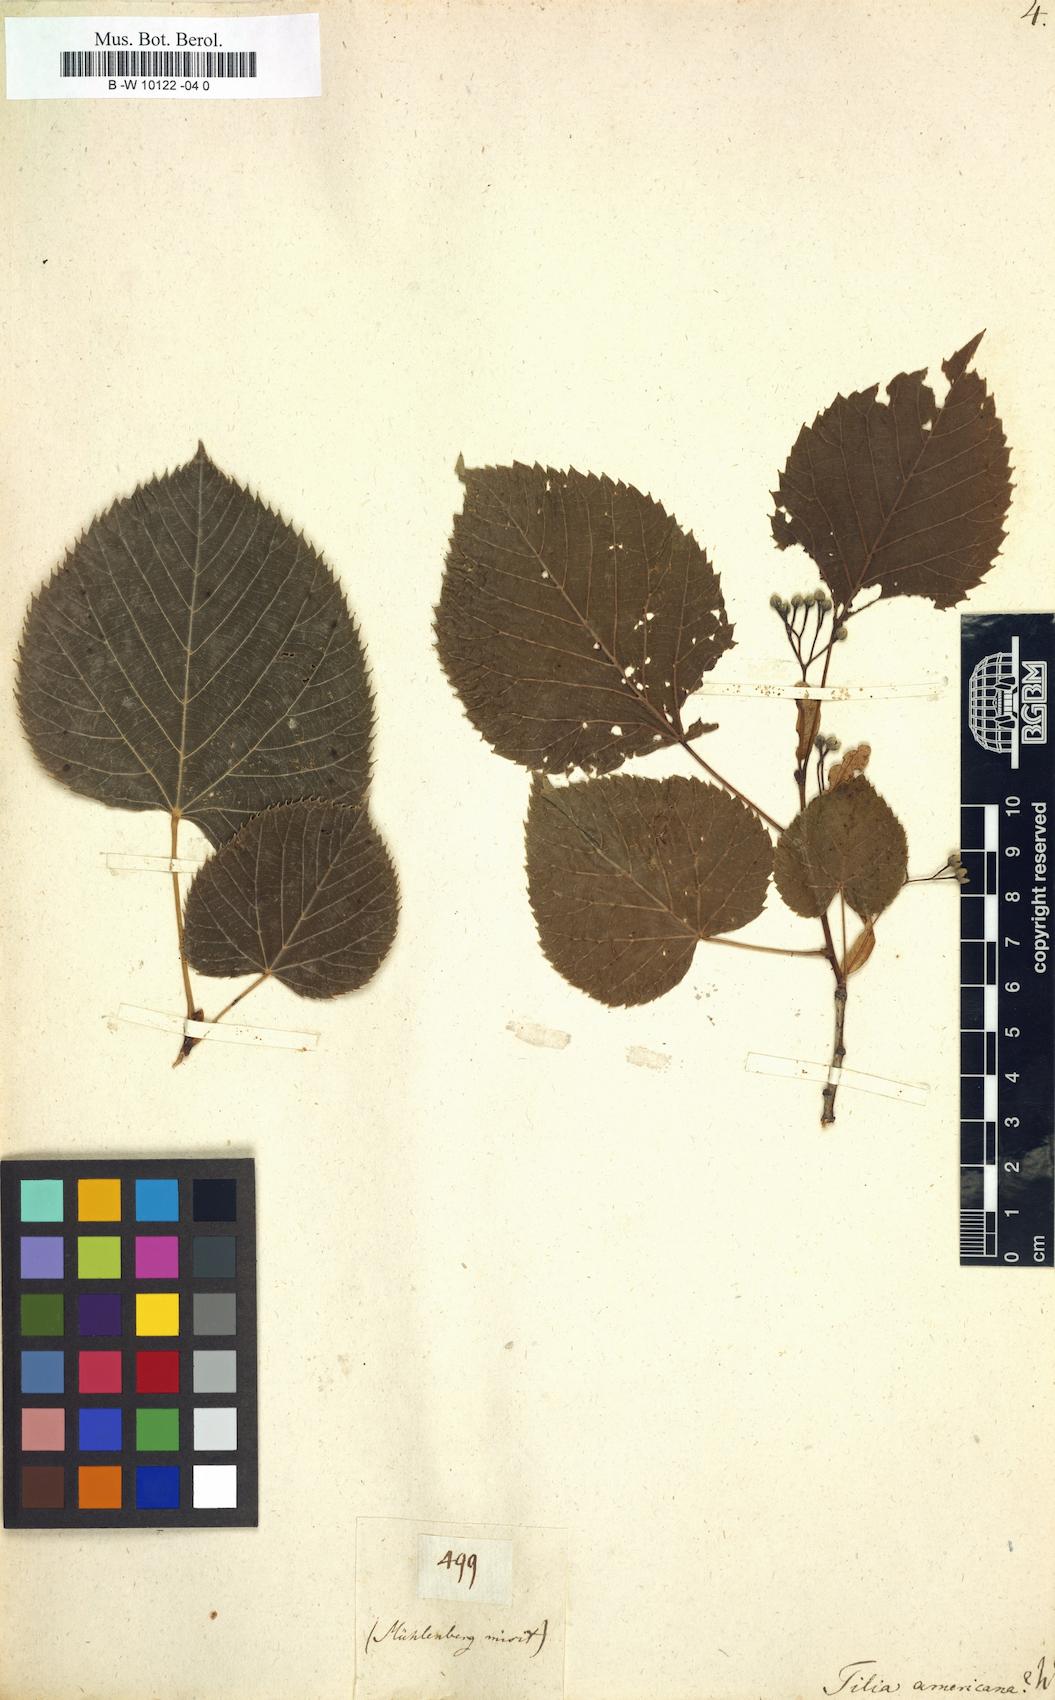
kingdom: Plantae
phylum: Tracheophyta
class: Magnoliopsida
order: Malvales
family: Malvaceae
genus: Tilia
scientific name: Tilia americana
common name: Basswood
